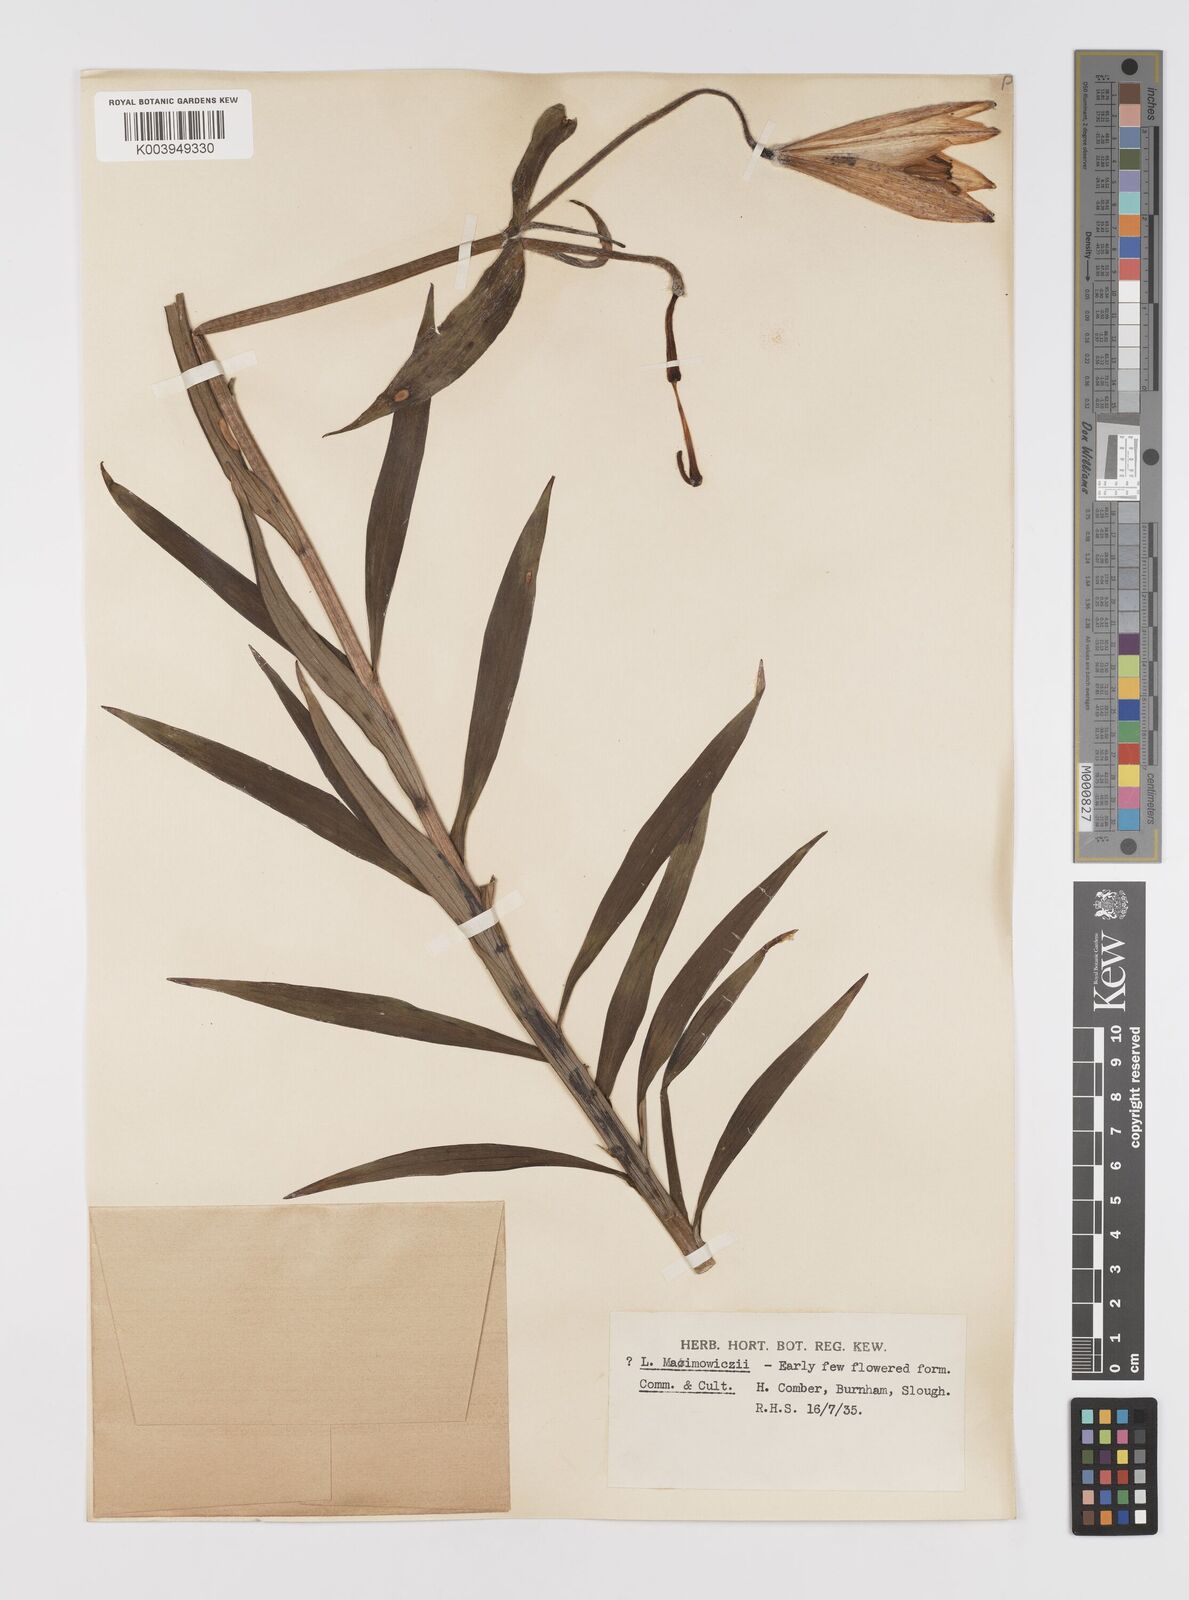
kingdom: Plantae
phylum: Tracheophyta
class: Liliopsida
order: Liliales
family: Liliaceae
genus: Lilium
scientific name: Lilium leichtlinii
